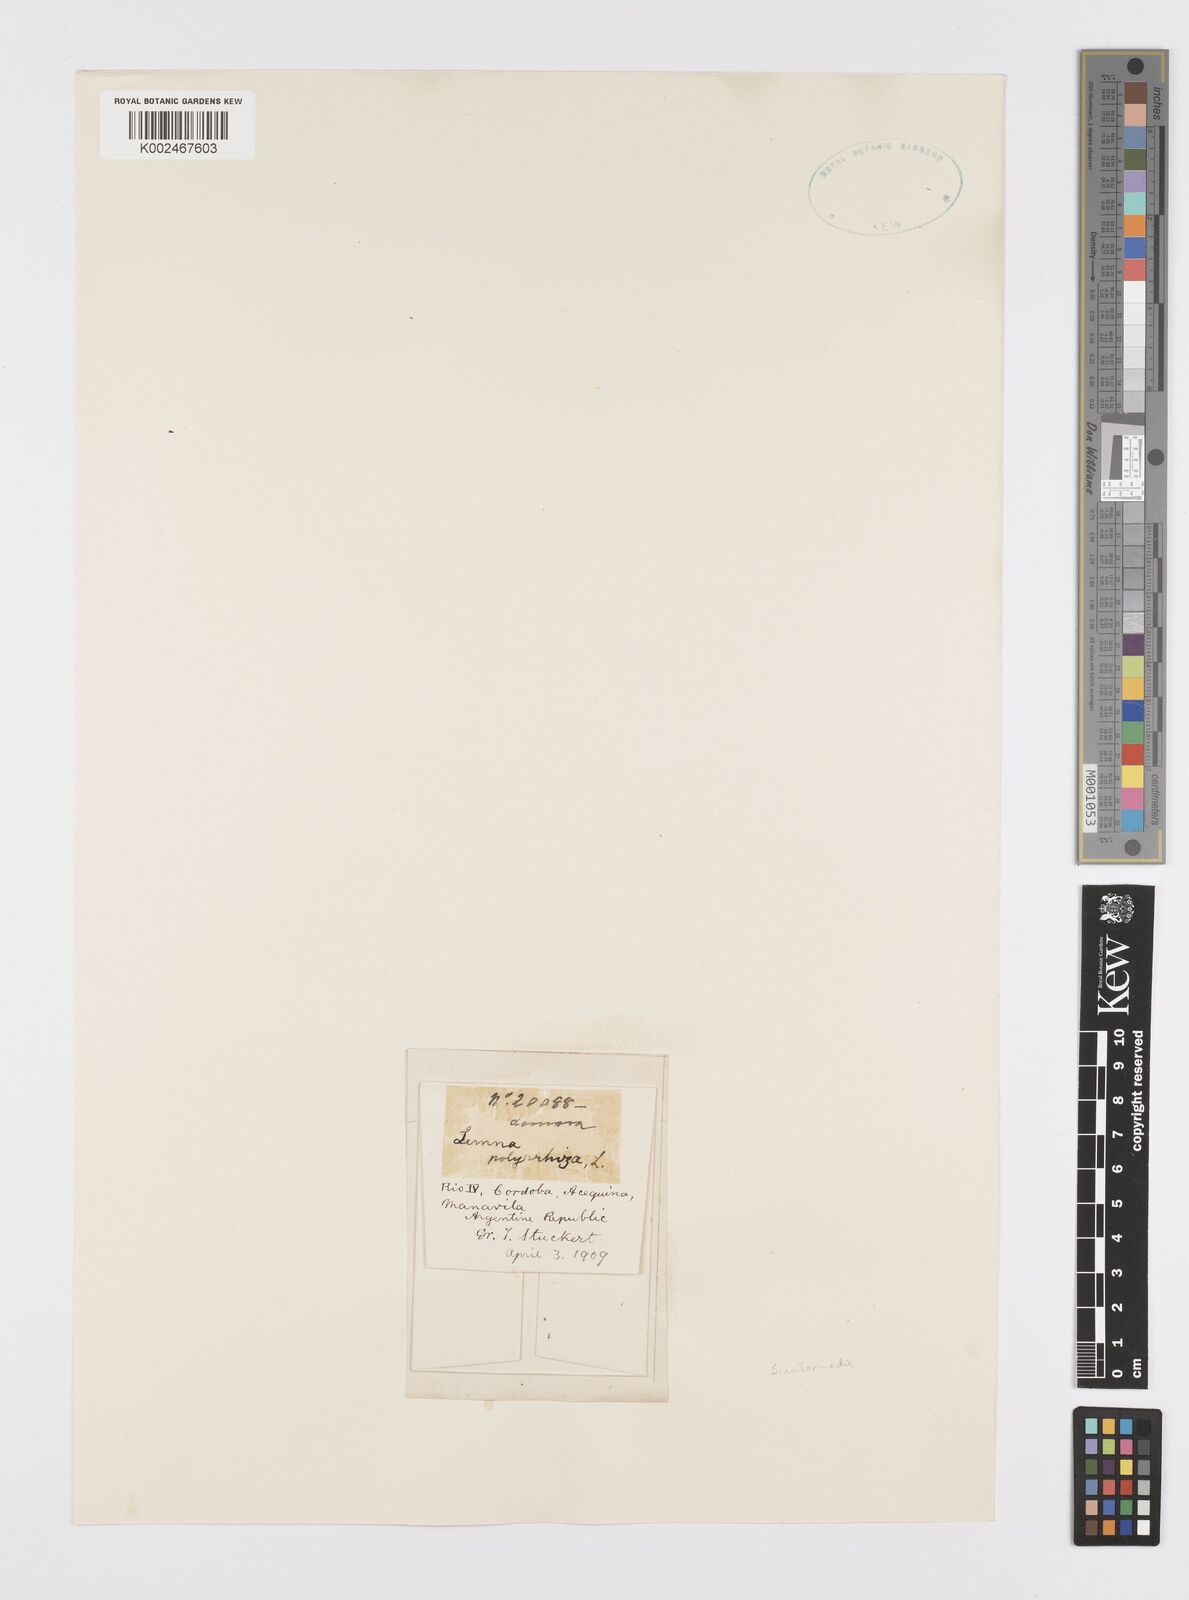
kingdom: Plantae
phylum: Tracheophyta
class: Liliopsida
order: Alismatales
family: Araceae
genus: Spirodela
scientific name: Spirodela polyrhiza
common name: Great duckweed
